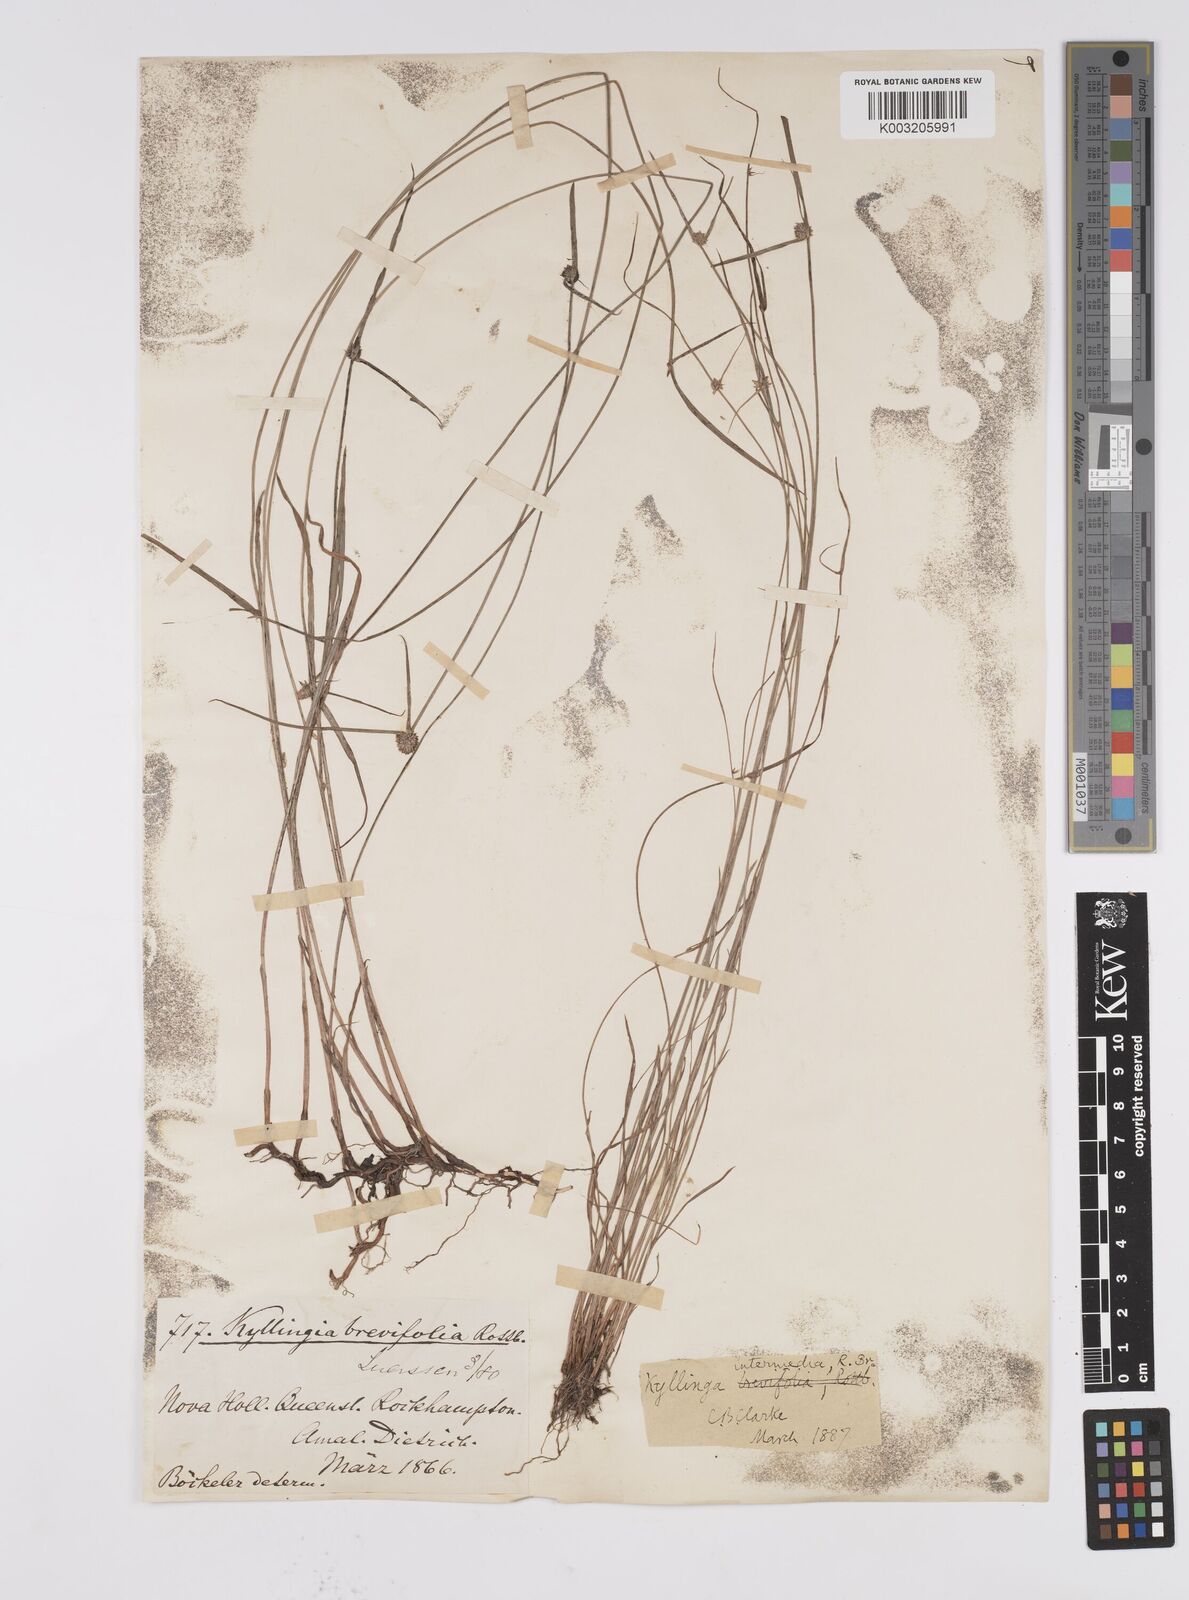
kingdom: Plantae
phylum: Tracheophyta
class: Liliopsida
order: Poales
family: Cyperaceae
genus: Cyperus
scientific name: Cyperus brevifolius
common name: Globe kyllinga
